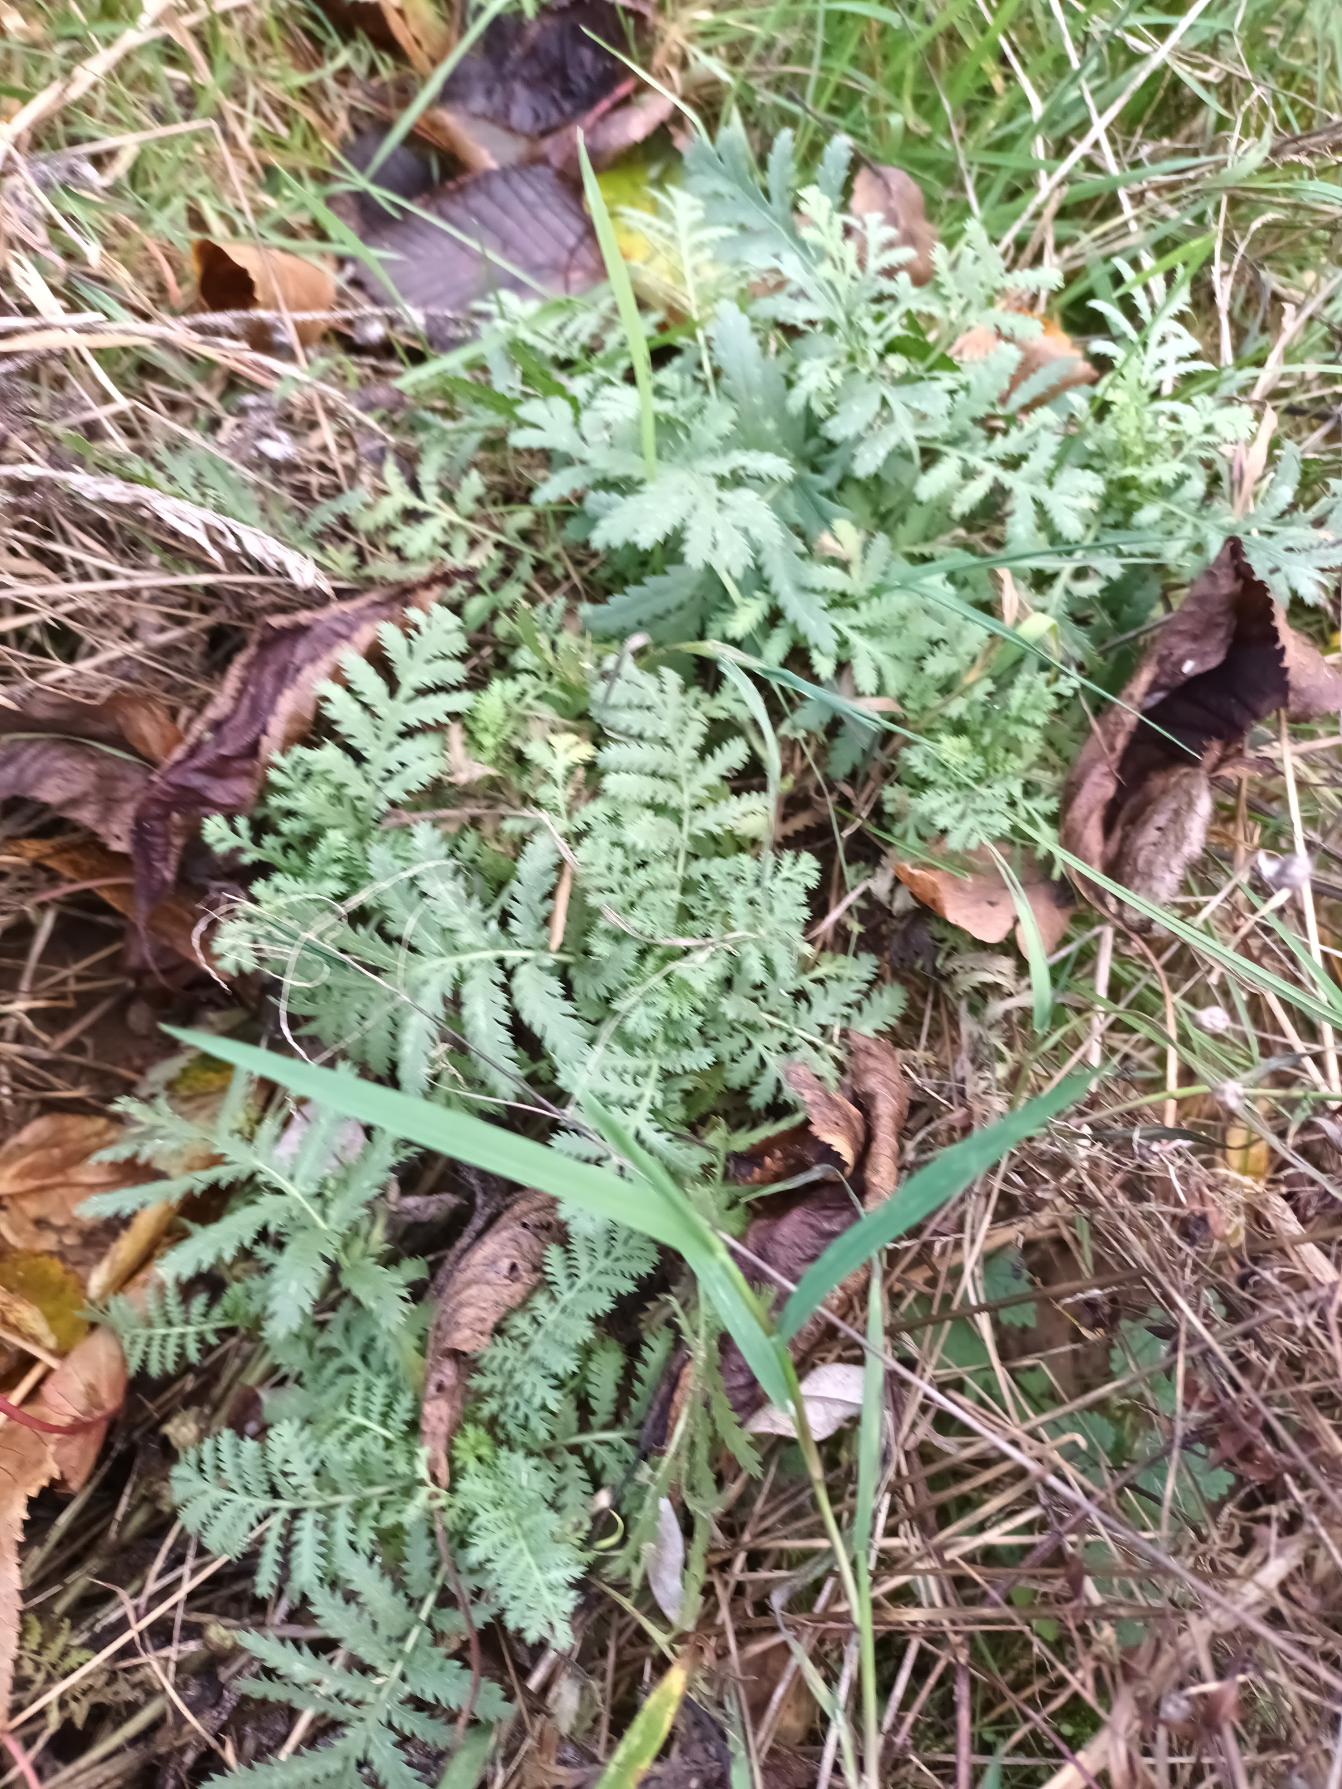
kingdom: Plantae
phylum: Tracheophyta
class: Magnoliopsida
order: Asterales
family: Asteraceae
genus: Tanacetum
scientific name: Tanacetum vulgare
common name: Rejnfan
